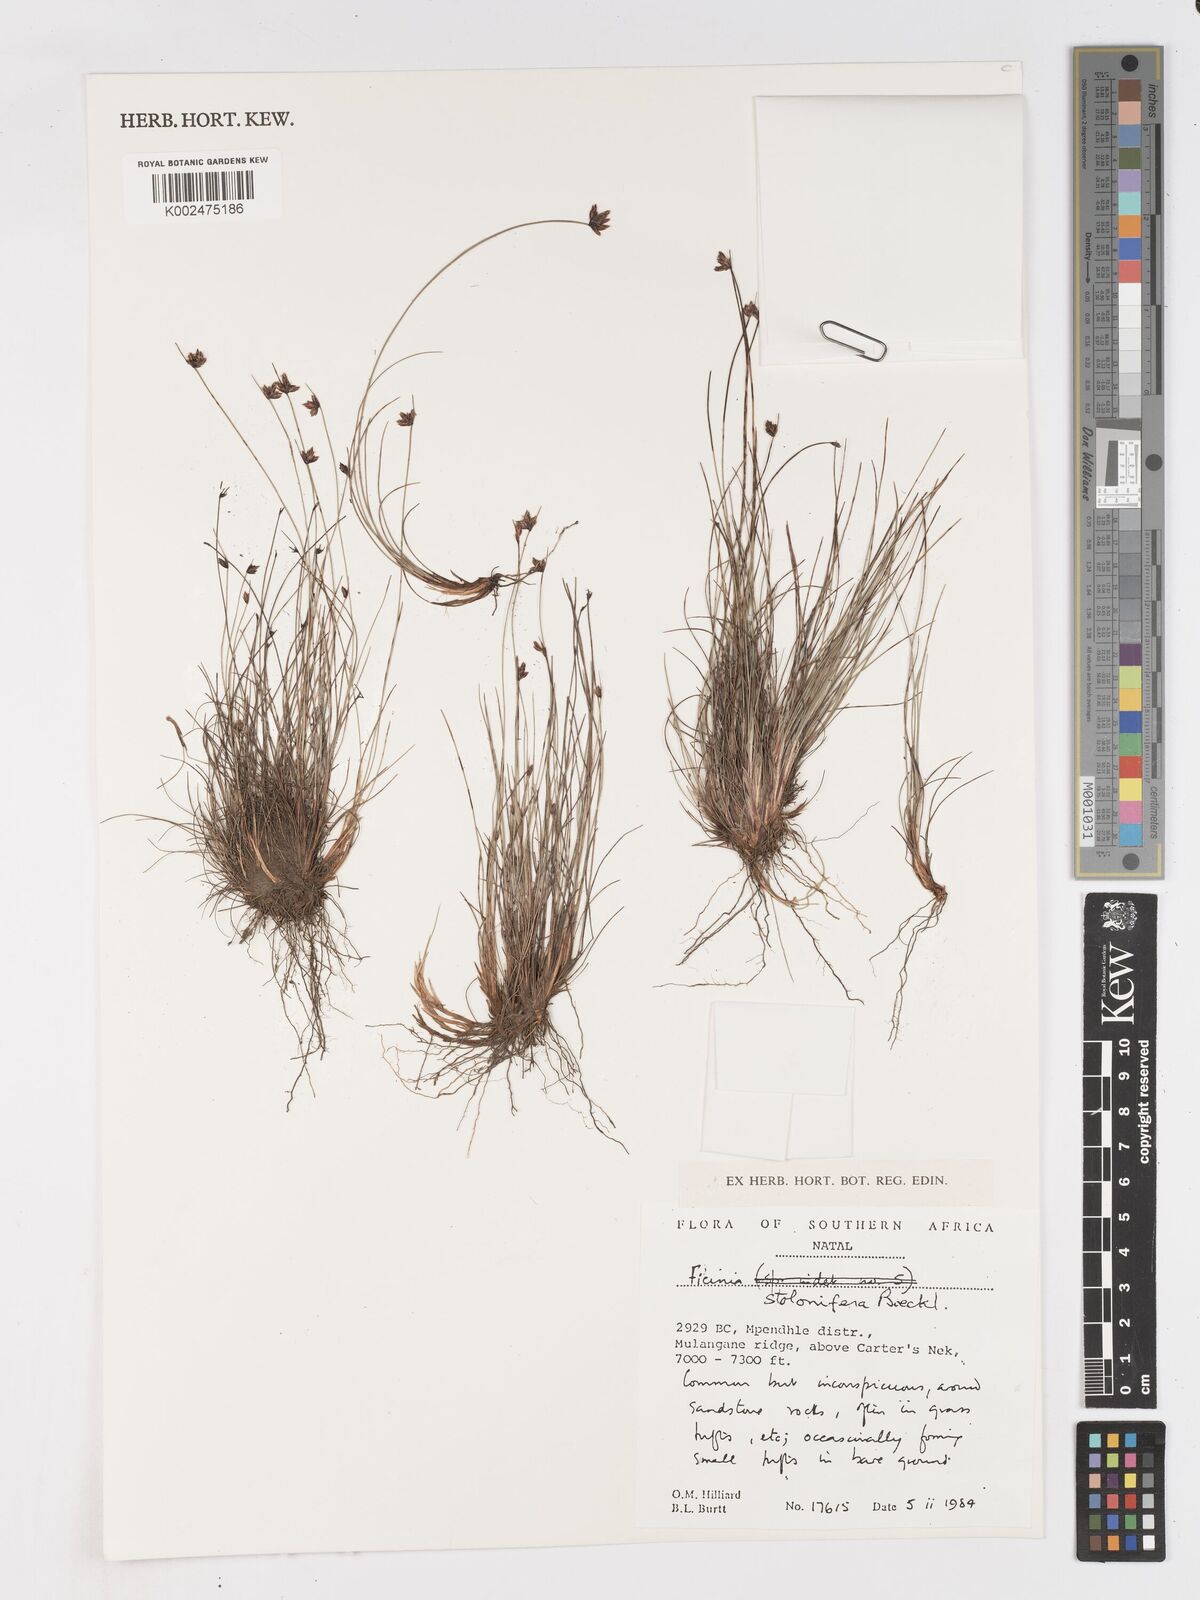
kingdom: Plantae
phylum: Tracheophyta
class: Liliopsida
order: Poales
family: Cyperaceae
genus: Ficinia
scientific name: Ficinia stolonifera
